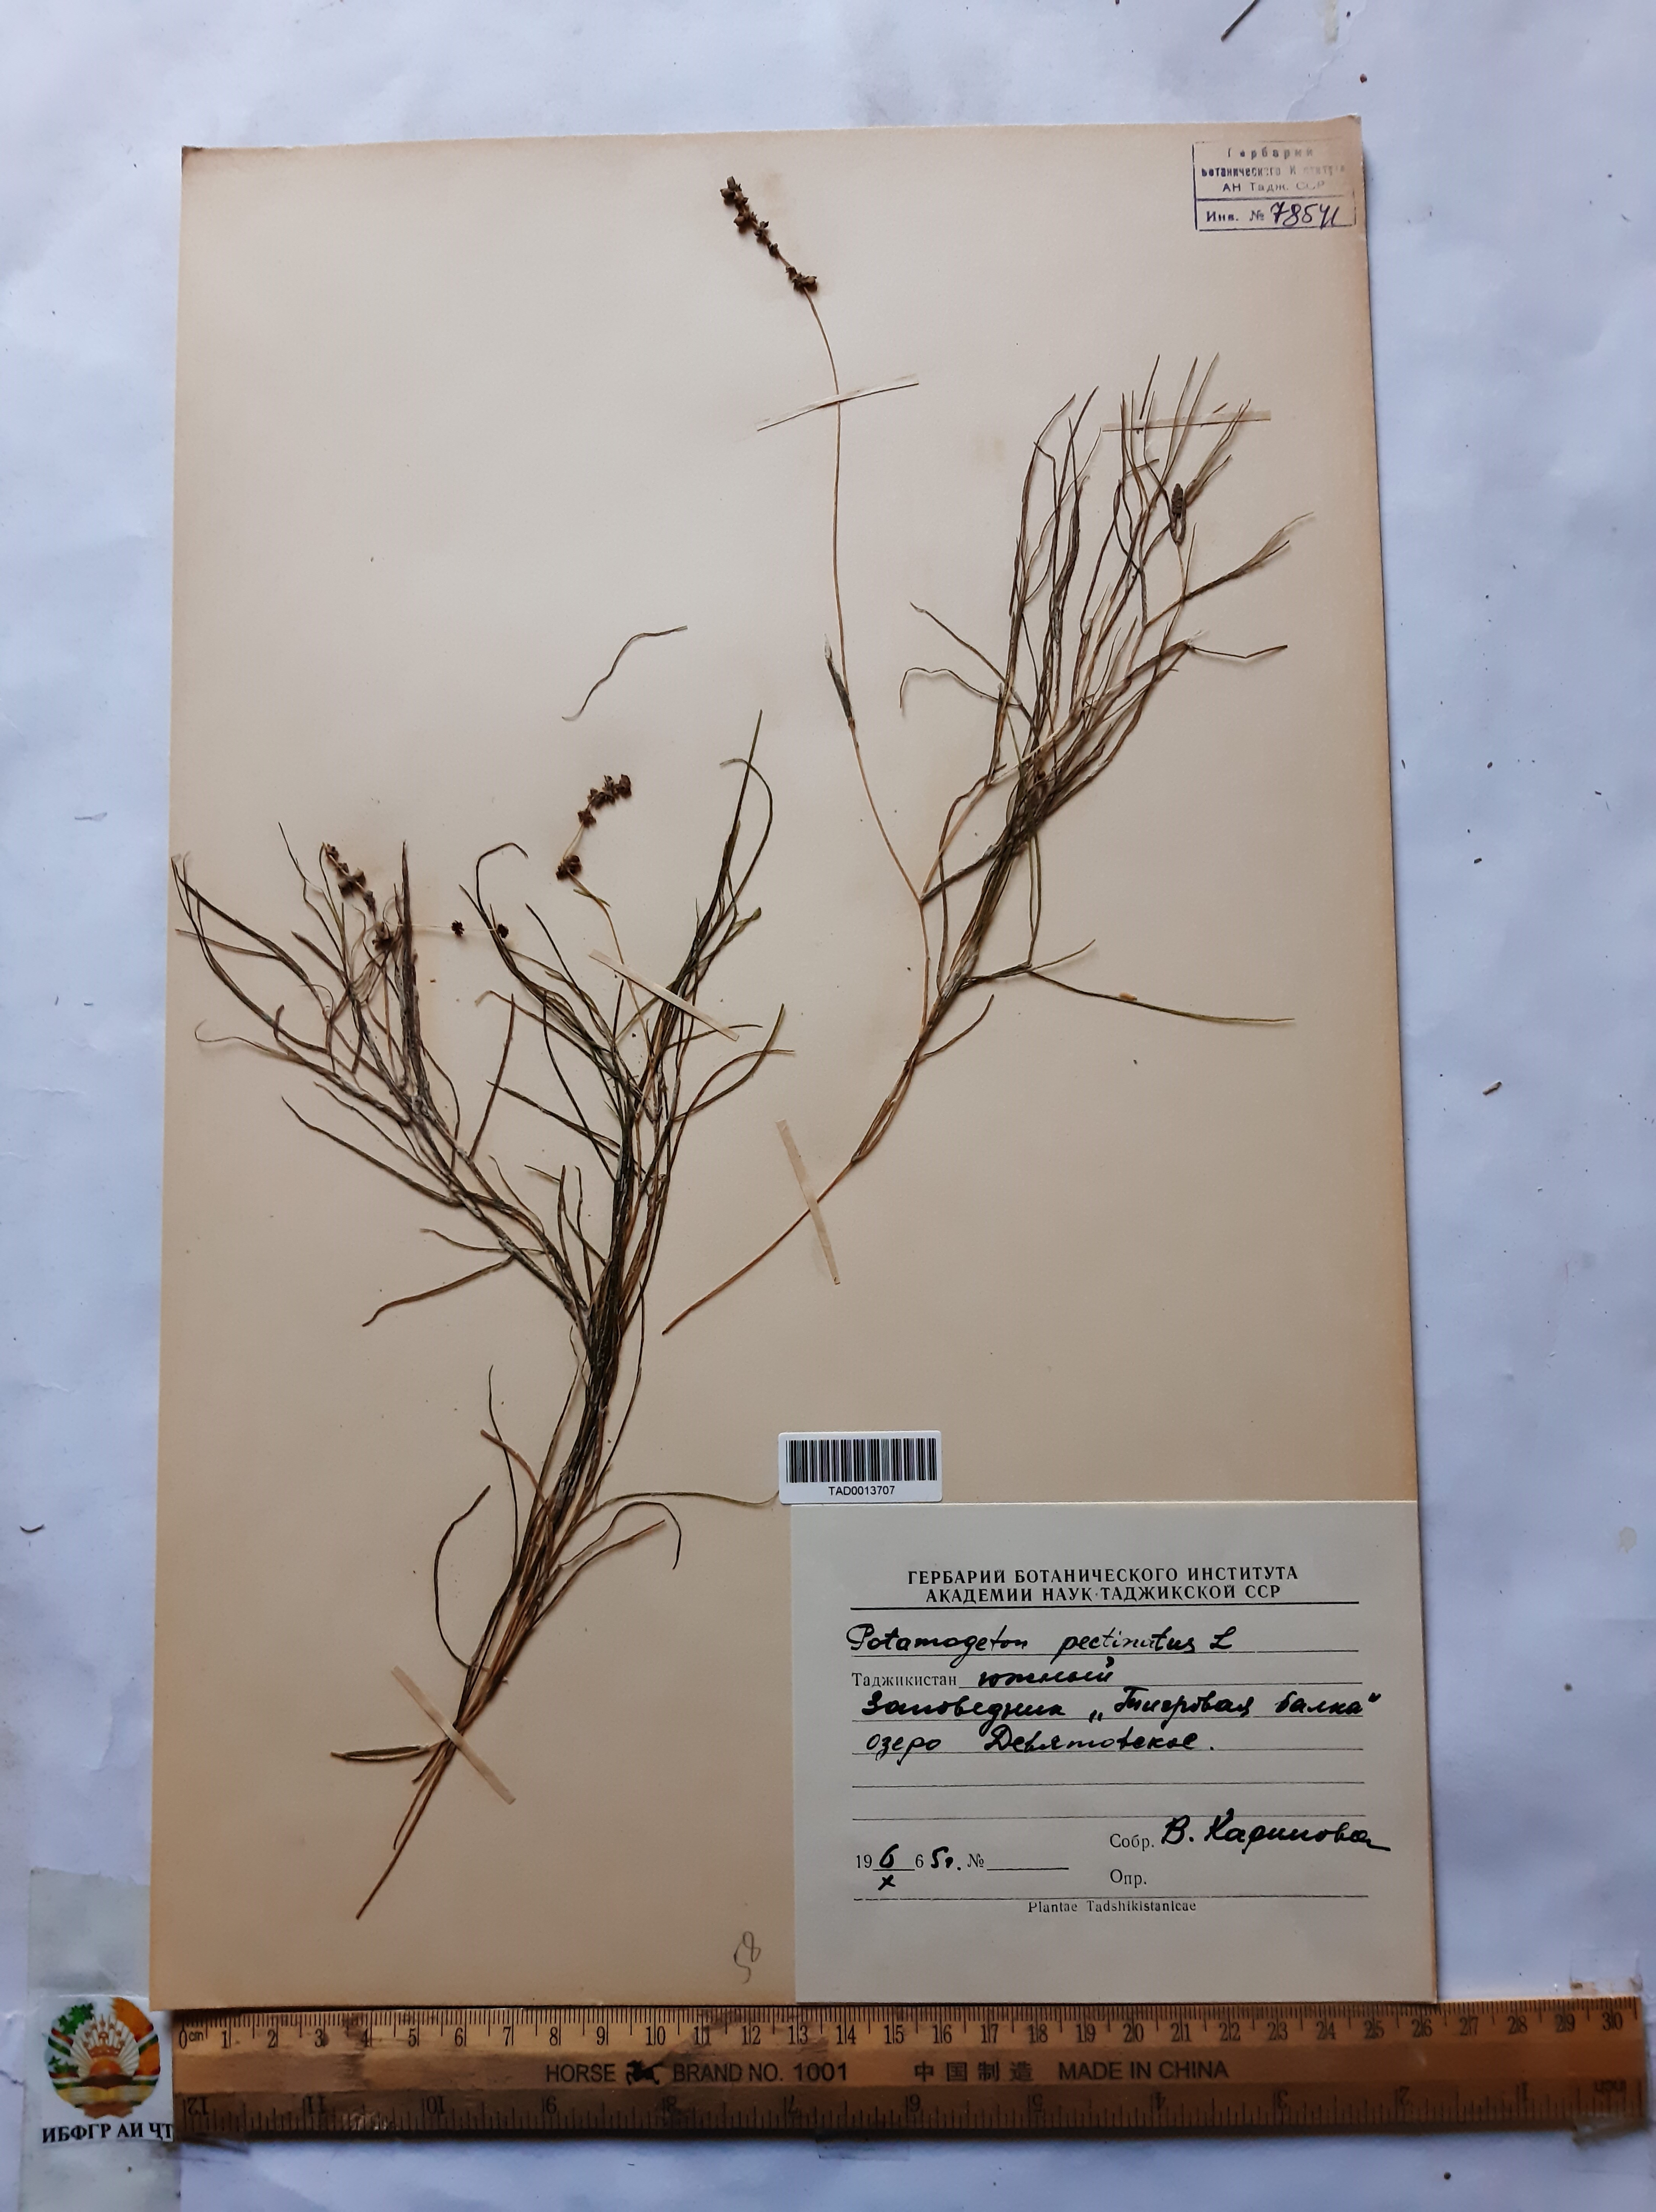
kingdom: Plantae
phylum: Tracheophyta
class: Liliopsida
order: Alismatales
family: Potamogetonaceae
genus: Stuckenia
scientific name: Stuckenia pectinata
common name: Sago pondweed
